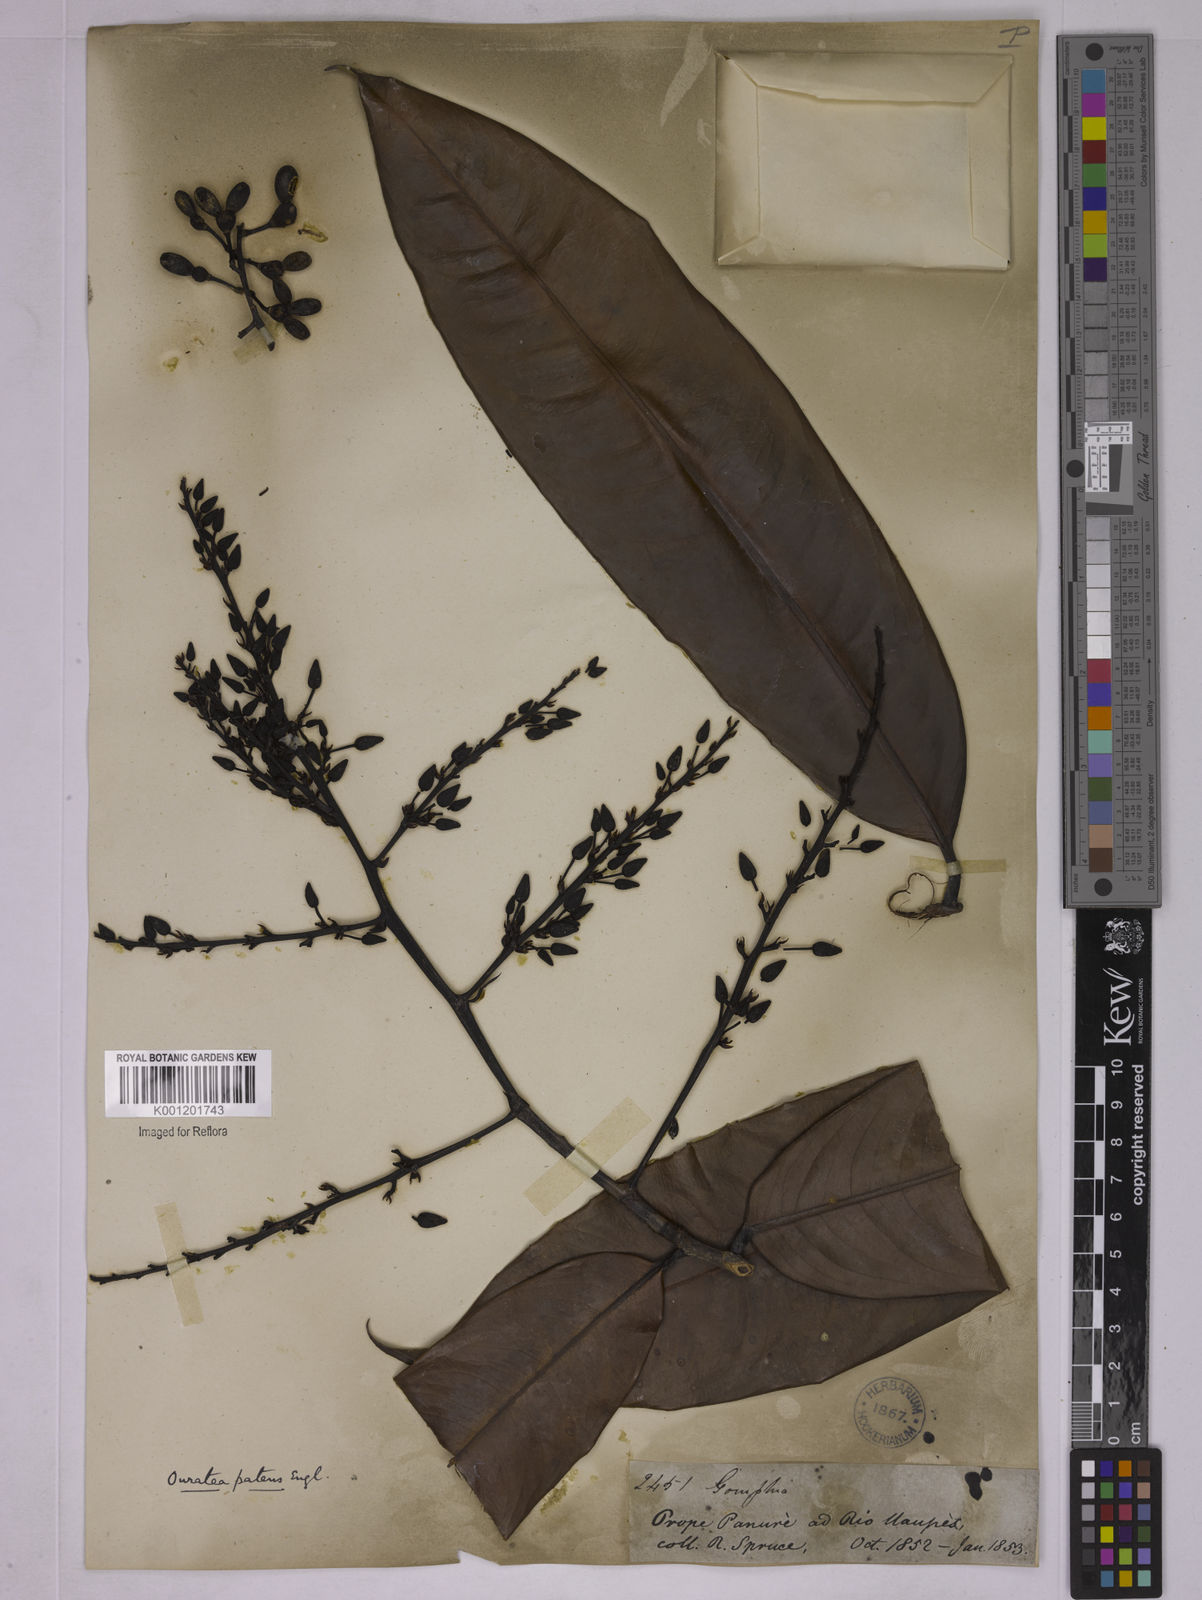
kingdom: Plantae
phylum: Tracheophyta
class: Magnoliopsida
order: Malpighiales
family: Ochnaceae
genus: Ouratea
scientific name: Ouratea patens
